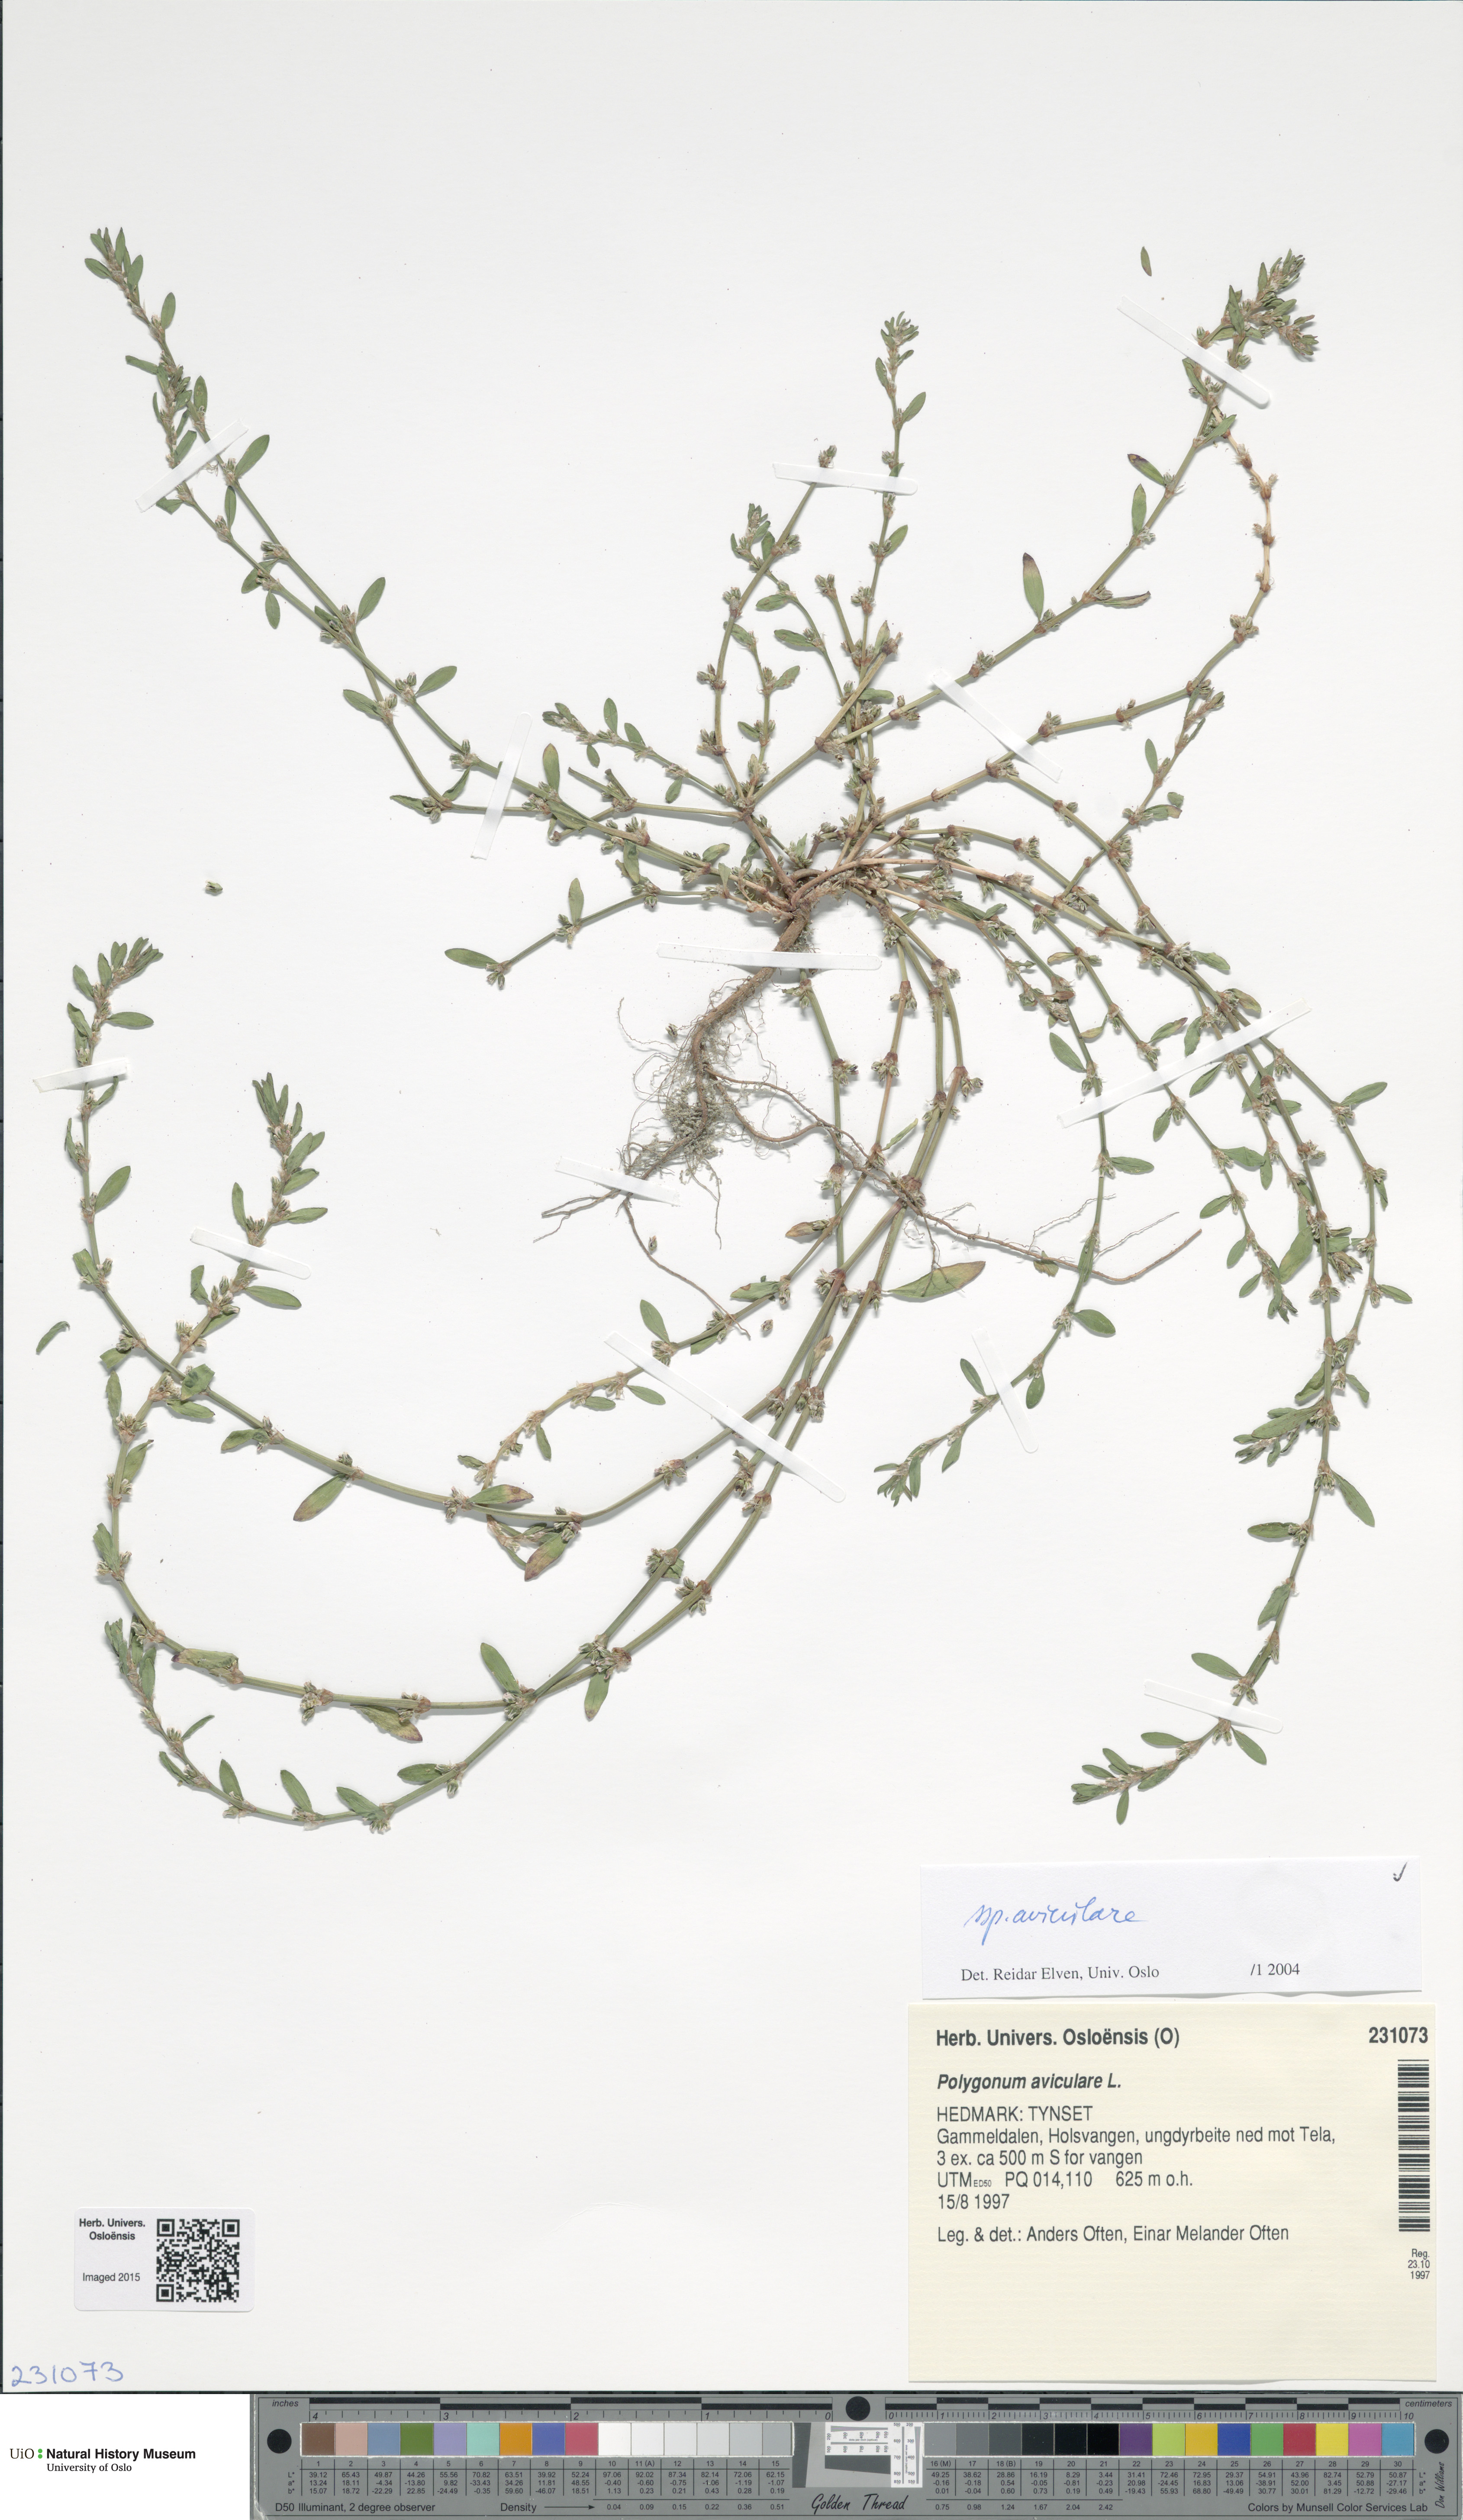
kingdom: Plantae
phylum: Tracheophyta
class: Magnoliopsida
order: Caryophyllales
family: Polygonaceae
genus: Polygonum
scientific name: Polygonum aviculare
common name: Prostrate knotweed
